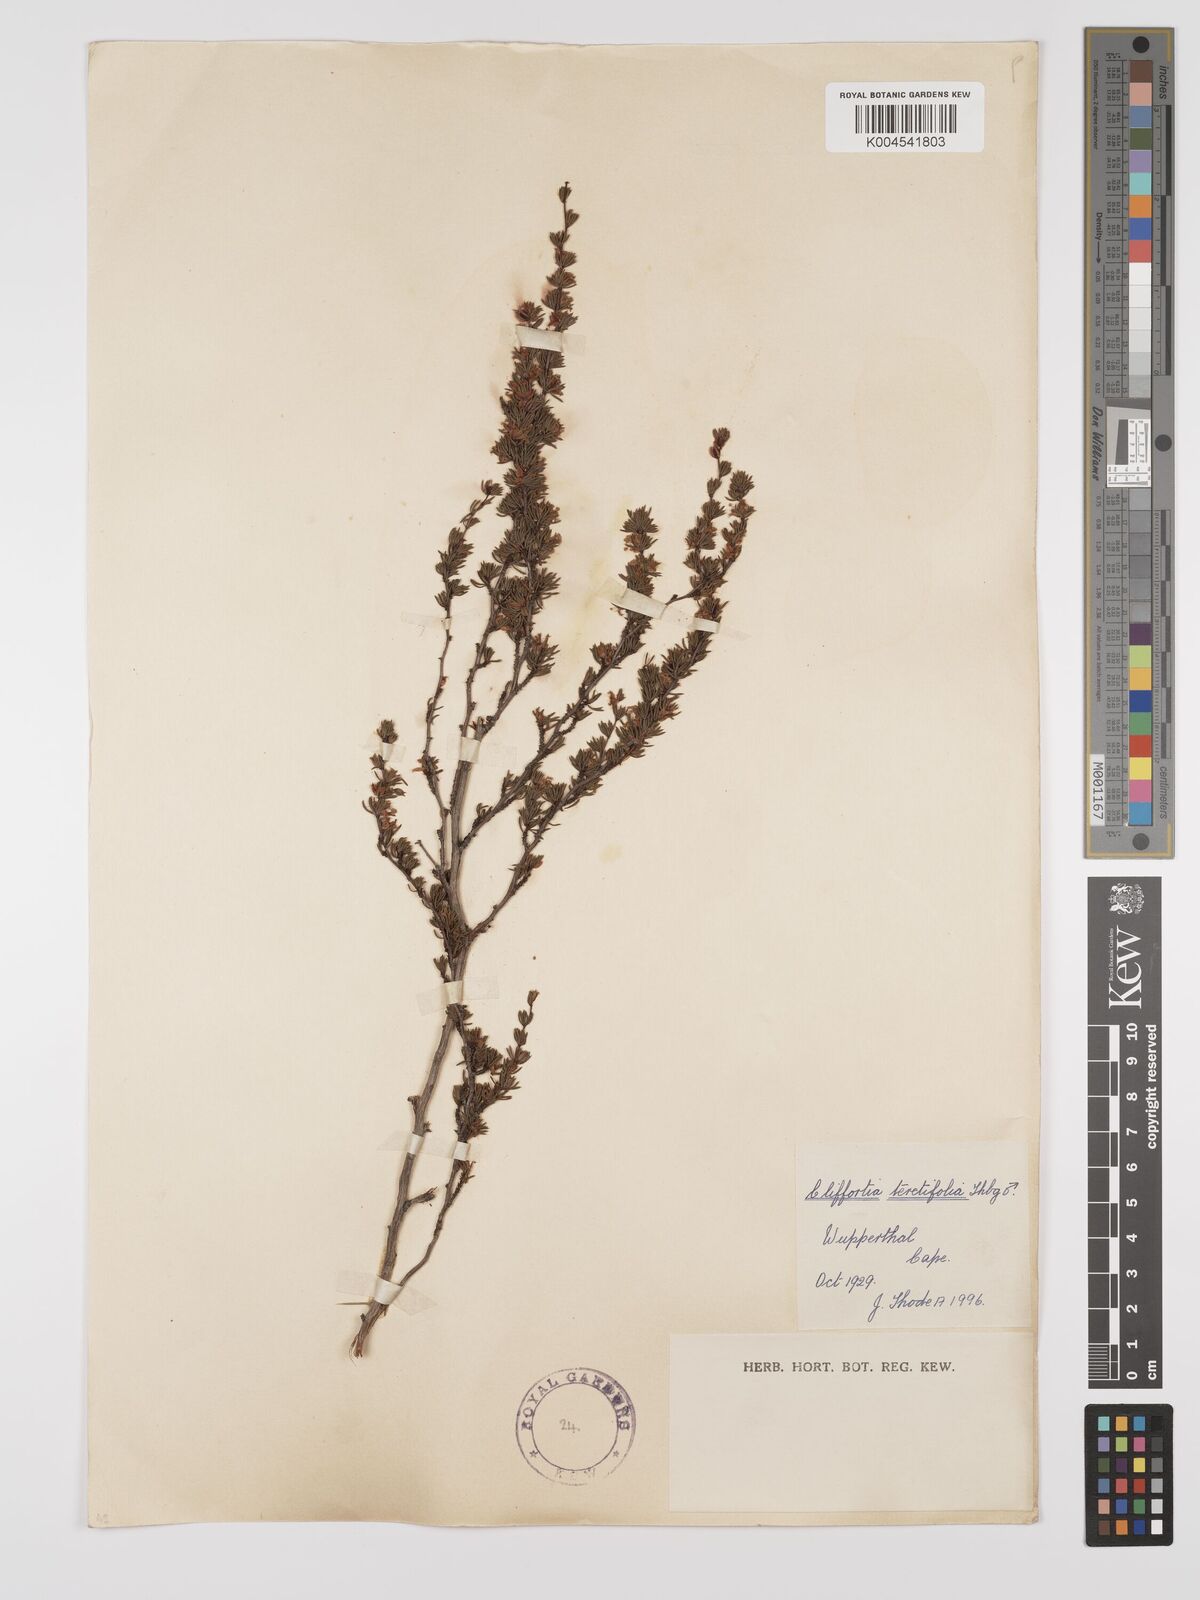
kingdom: Plantae
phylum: Tracheophyta
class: Magnoliopsida
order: Rosales
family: Rosaceae
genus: Cliffortia
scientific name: Cliffortia teretifolia
